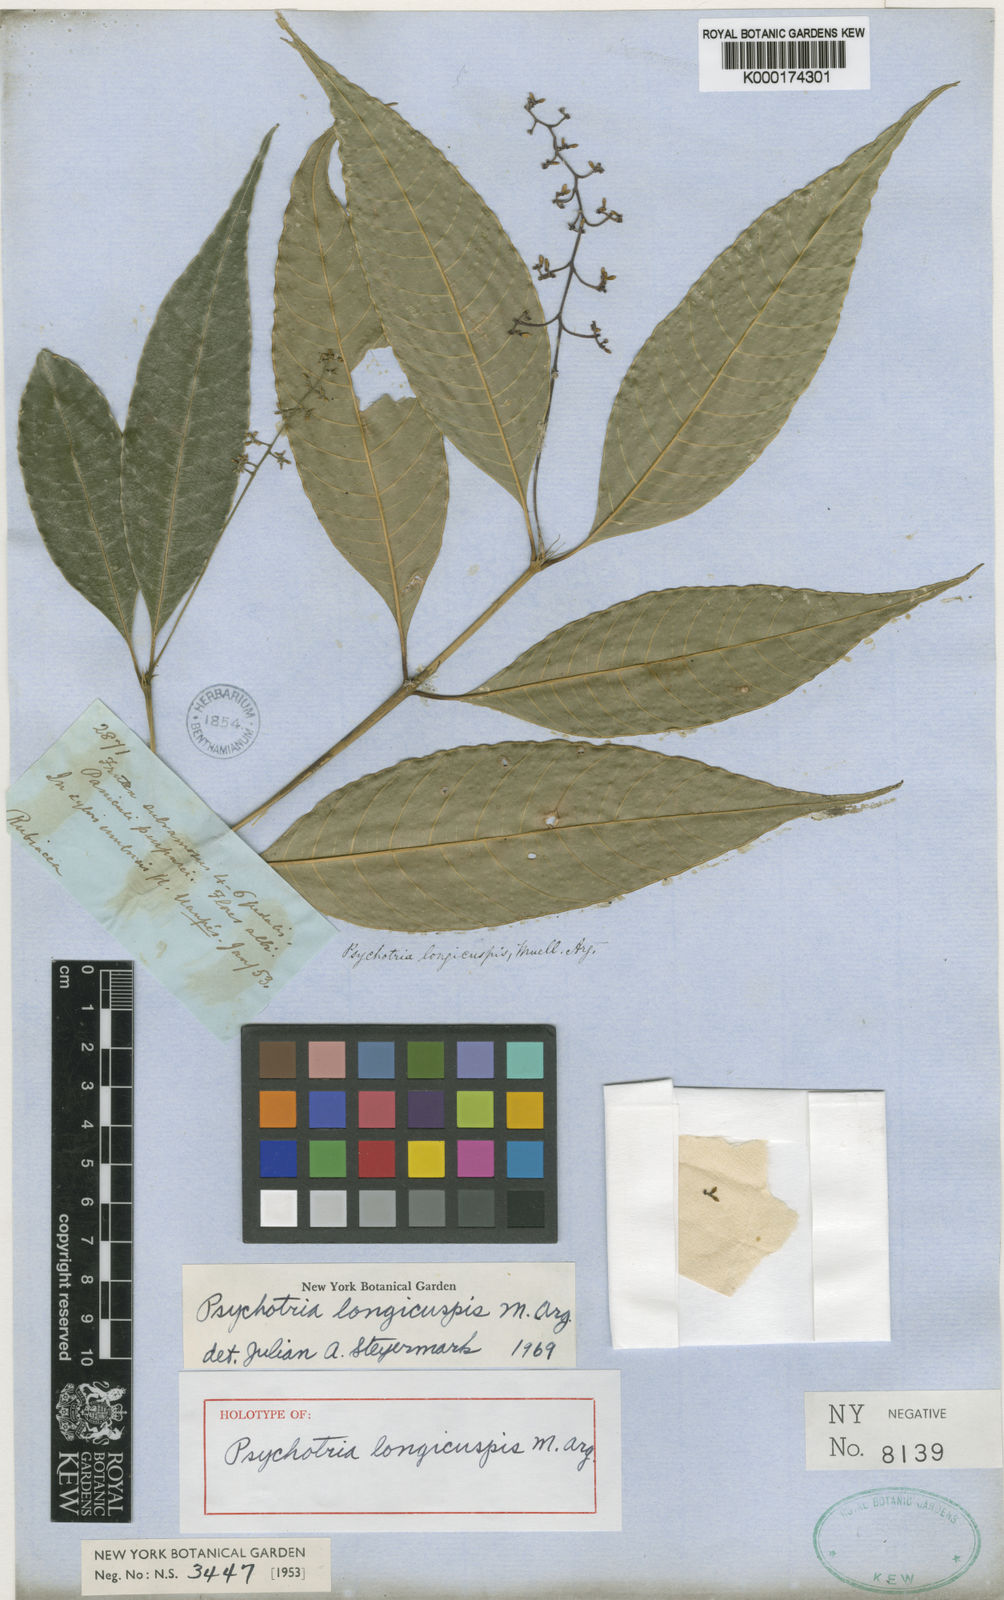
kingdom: Plantae
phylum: Tracheophyta
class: Magnoliopsida
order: Gentianales
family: Rubiaceae
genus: Psychotria
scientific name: Psychotria
